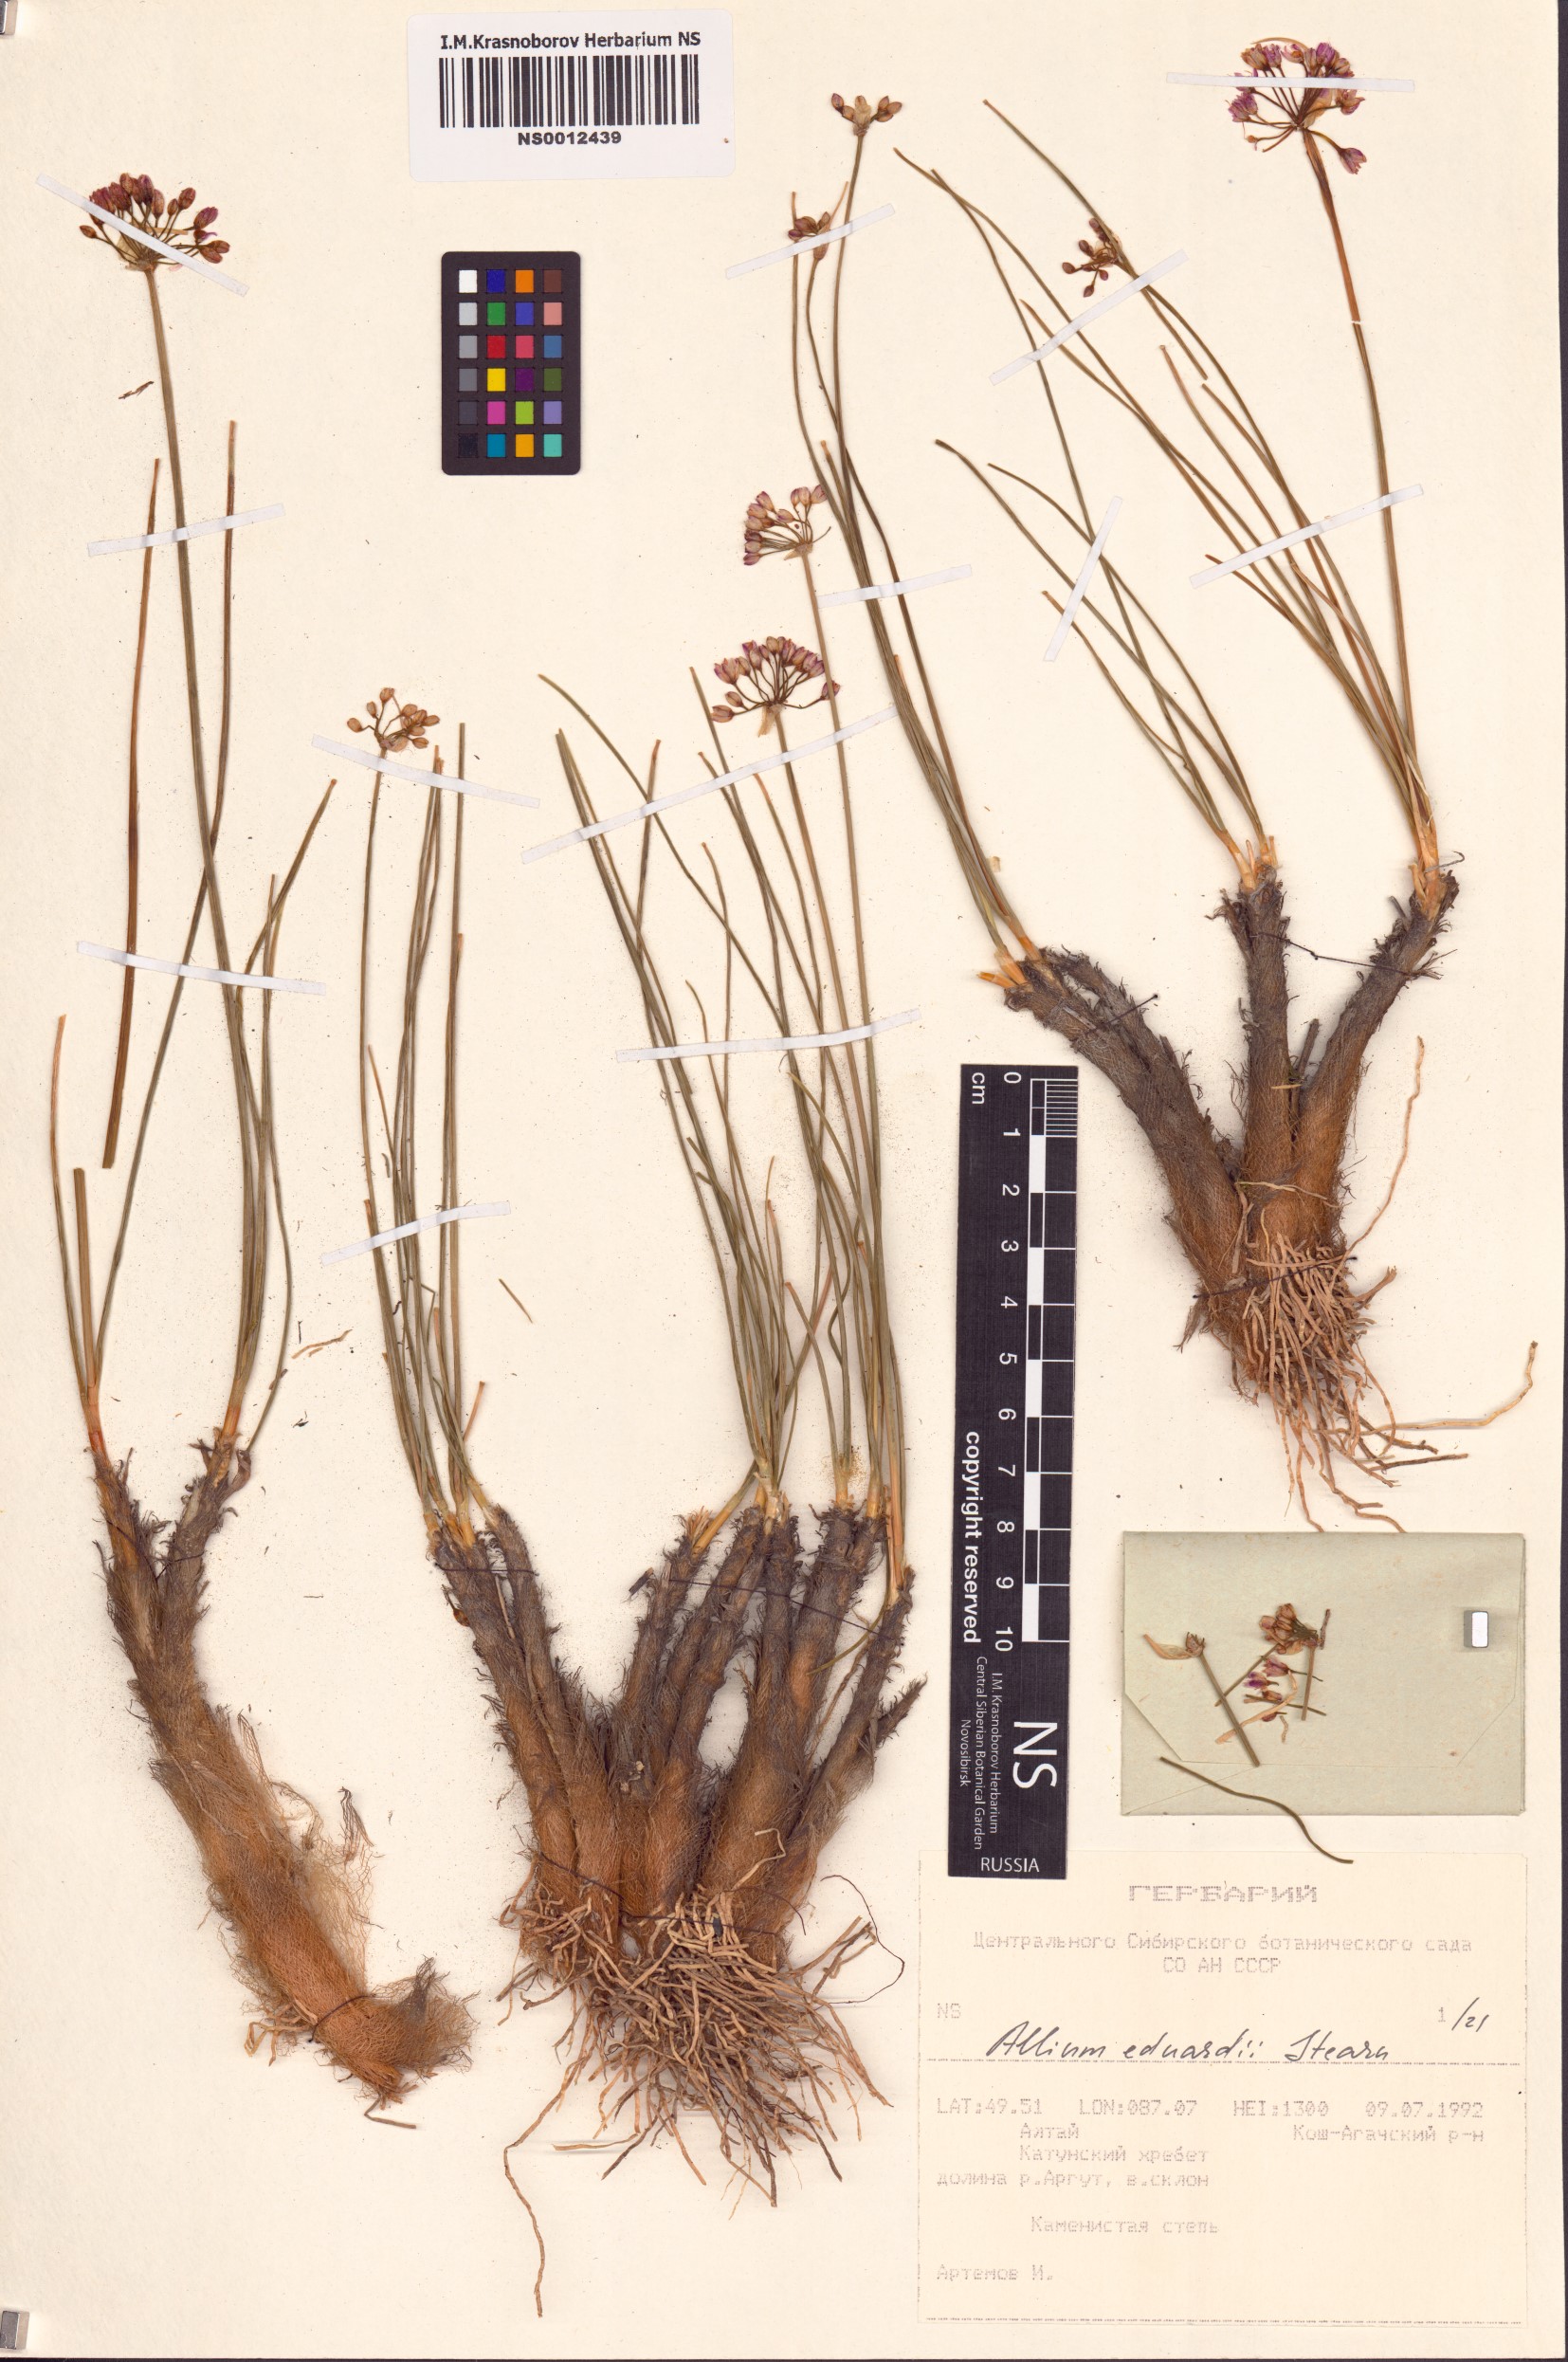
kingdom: Plantae
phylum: Tracheophyta
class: Liliopsida
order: Asparagales
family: Amaryllidaceae
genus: Allium
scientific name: Allium eduardi
